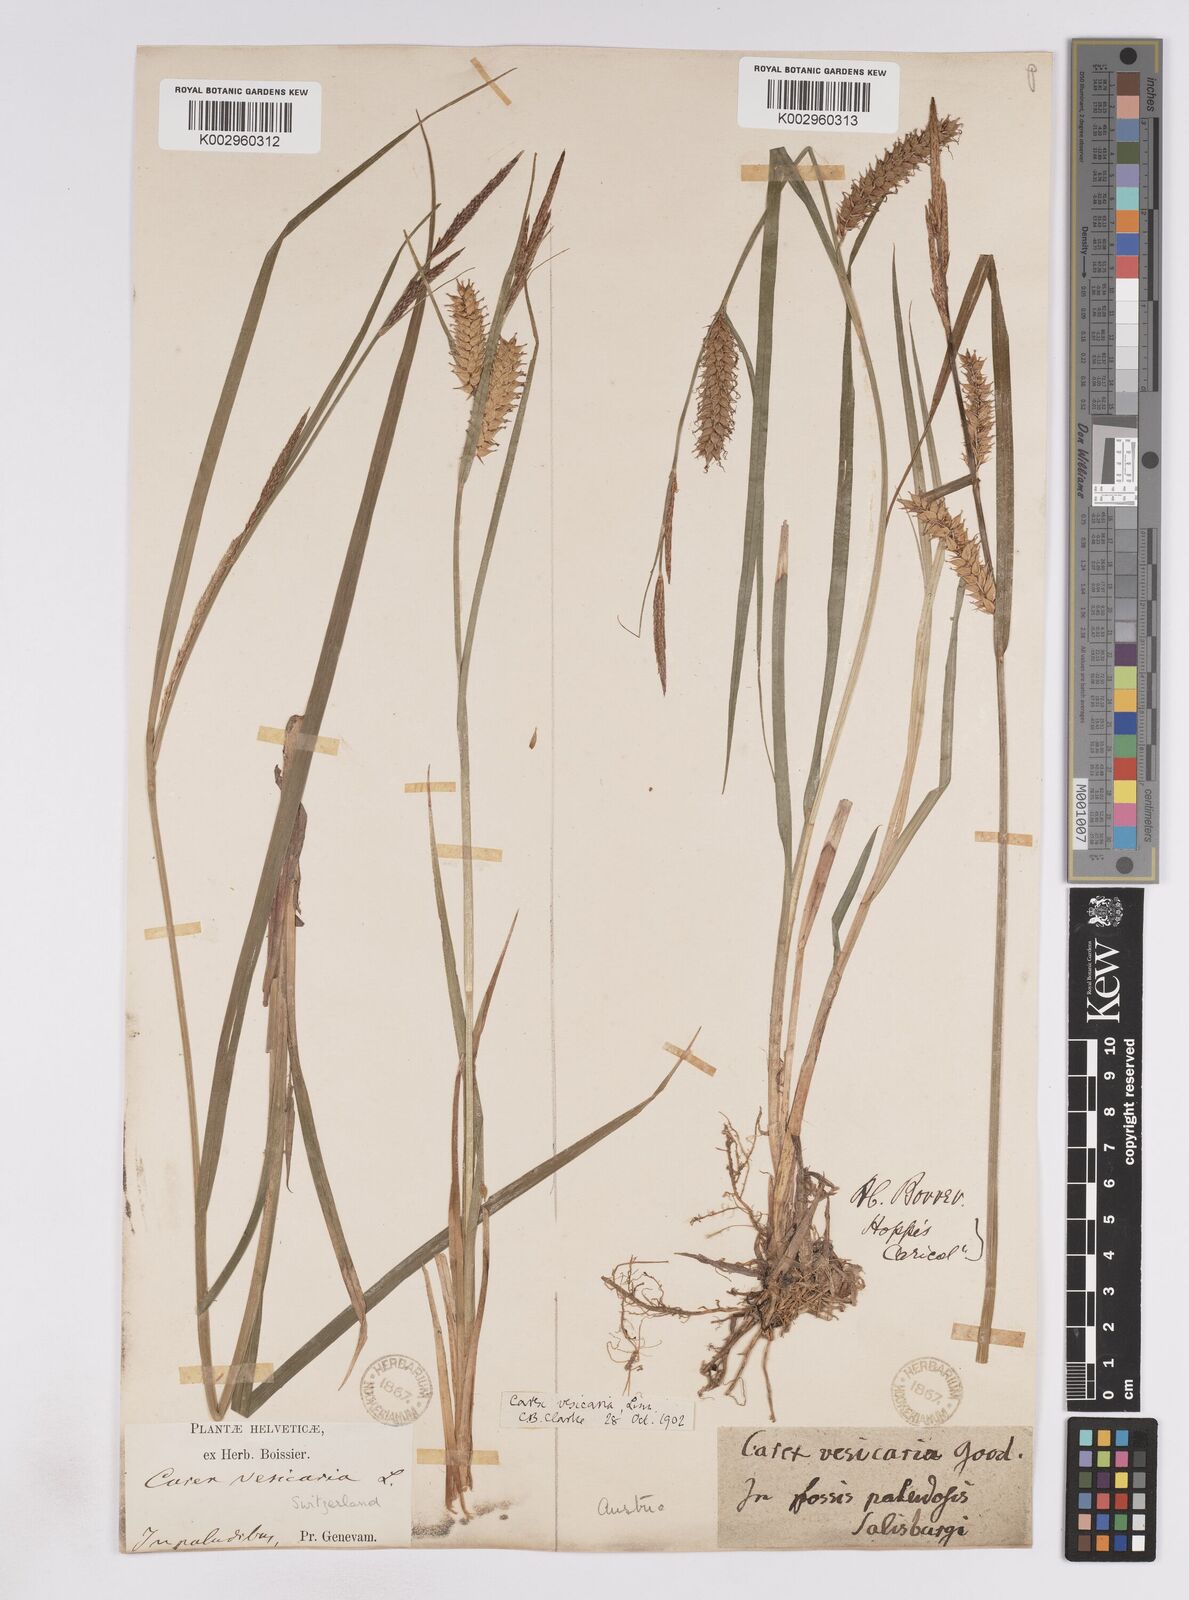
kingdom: Plantae
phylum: Tracheophyta
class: Liliopsida
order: Poales
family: Cyperaceae
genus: Carex
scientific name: Carex vesicaria
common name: Bladder-sedge
